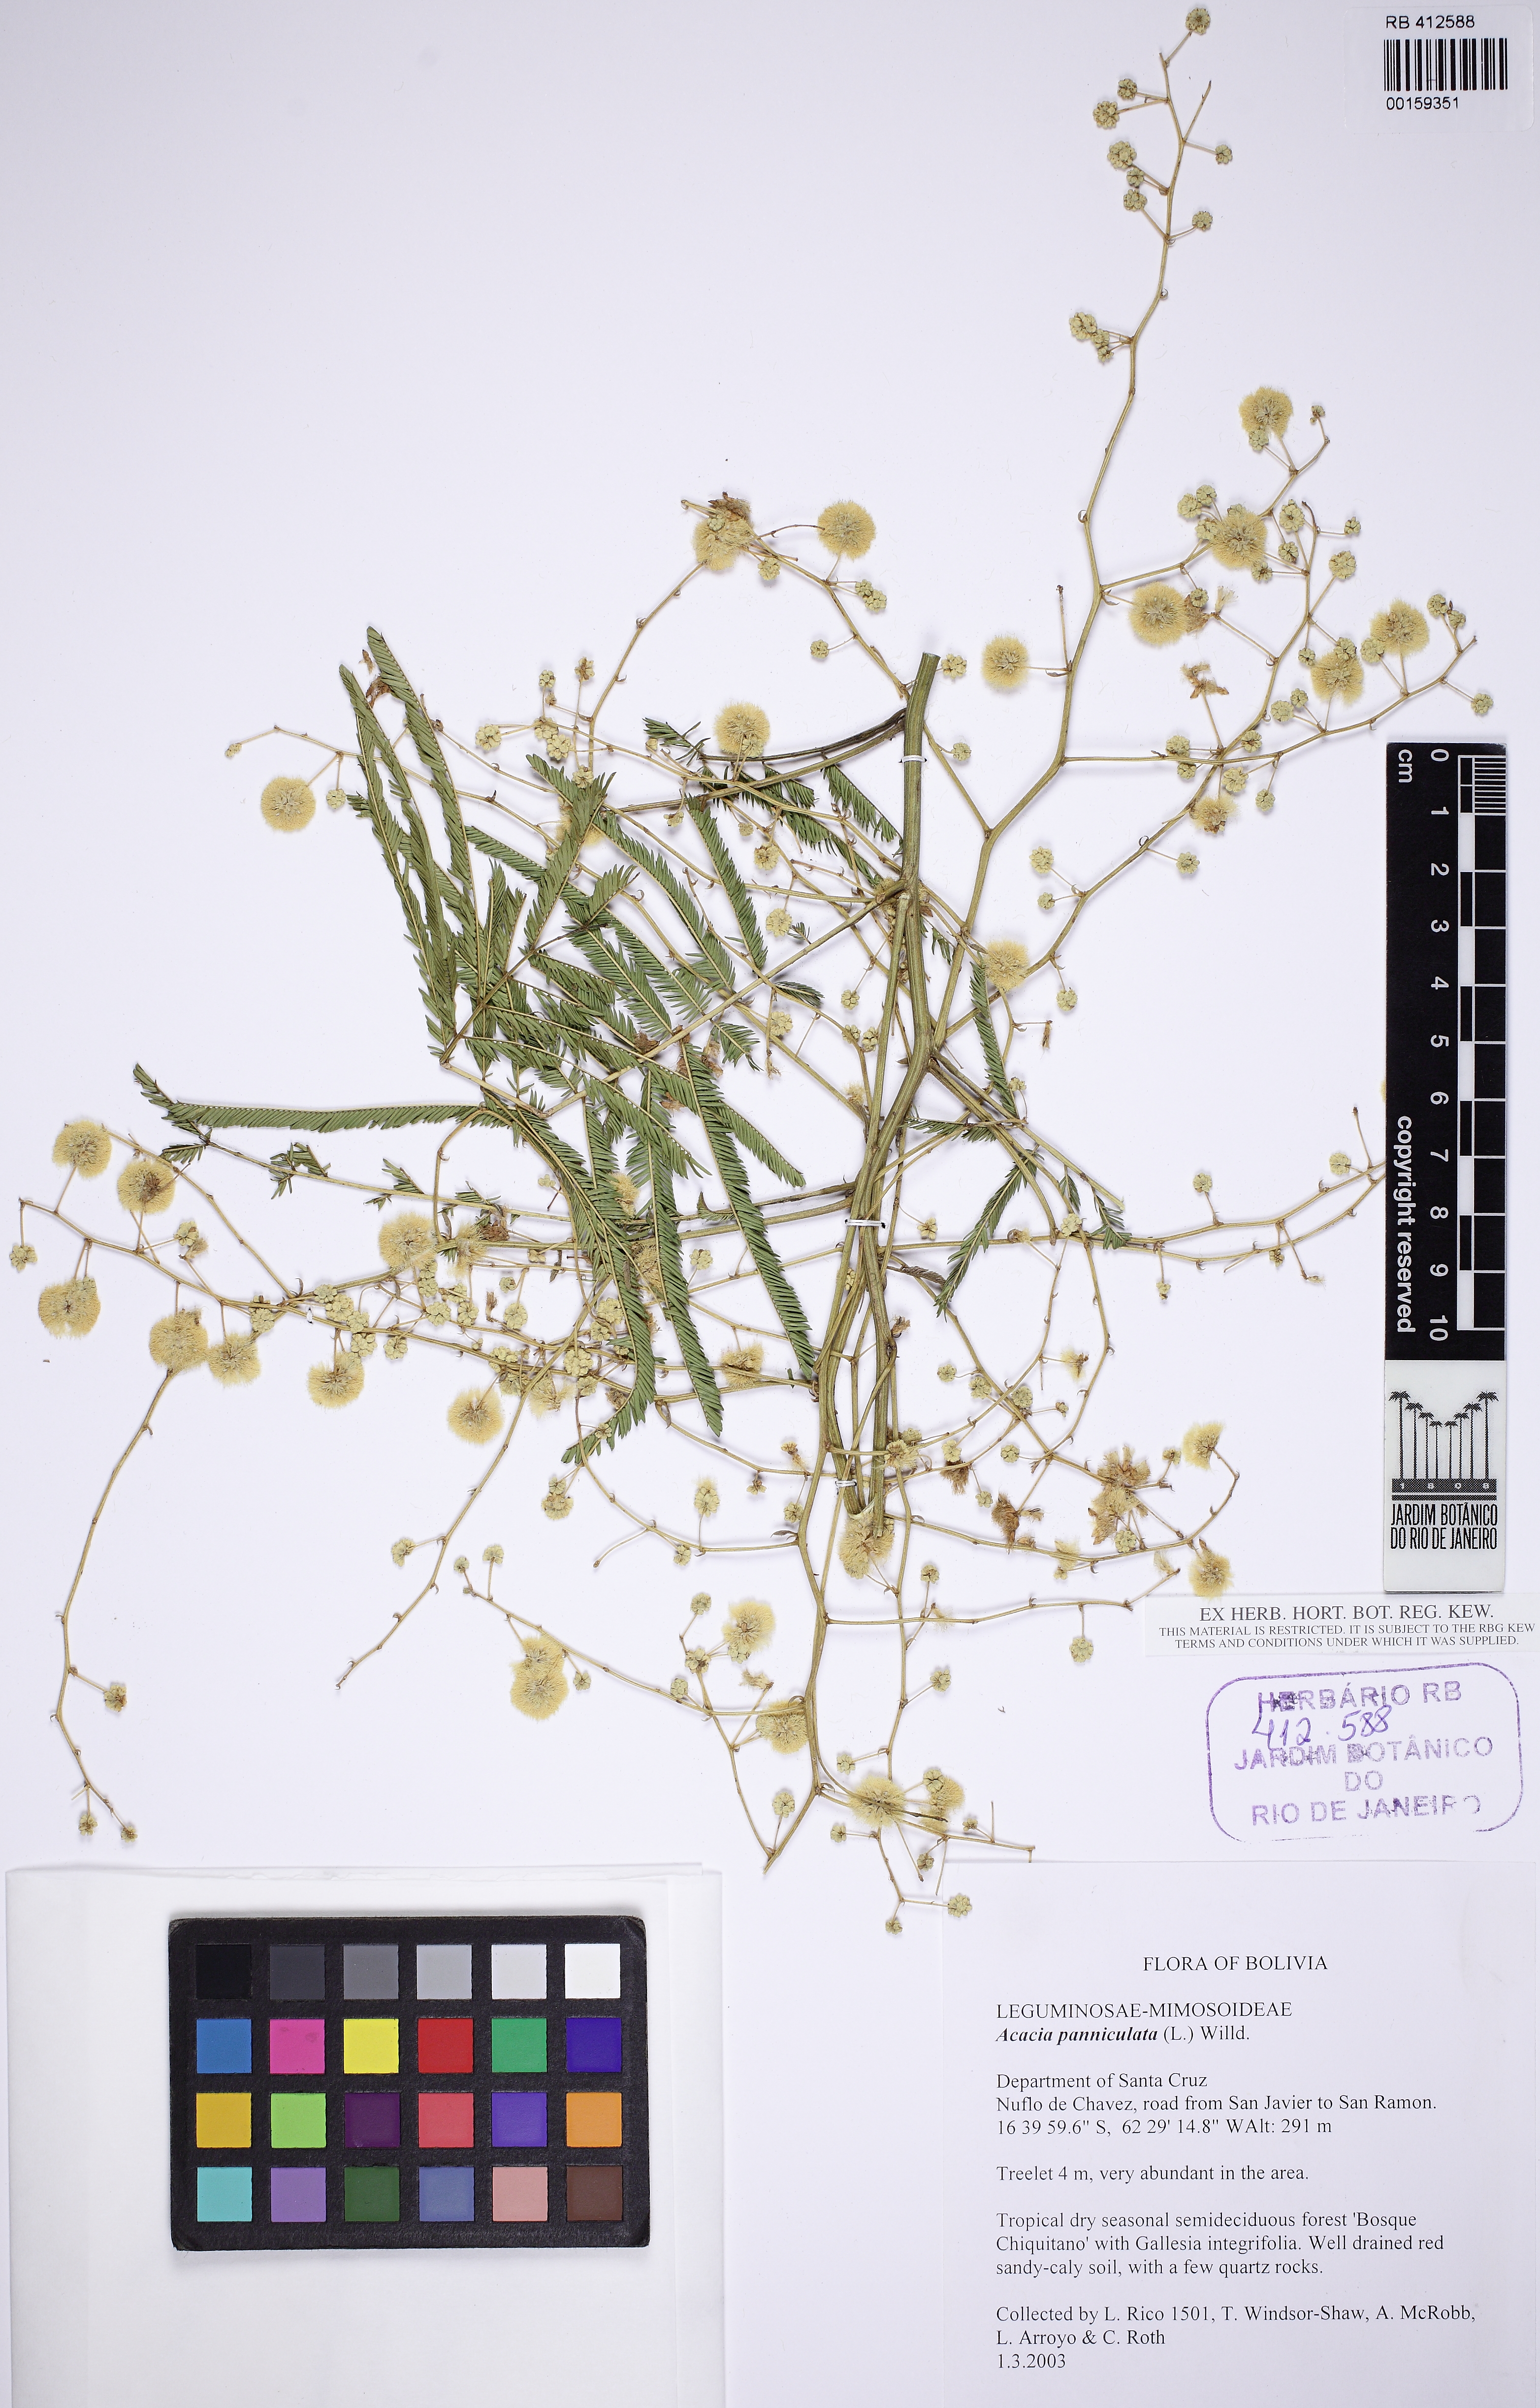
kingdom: Plantae
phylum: Tracheophyta
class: Magnoliopsida
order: Fabales
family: Fabaceae
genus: Senegalia
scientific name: Senegalia parviceps
